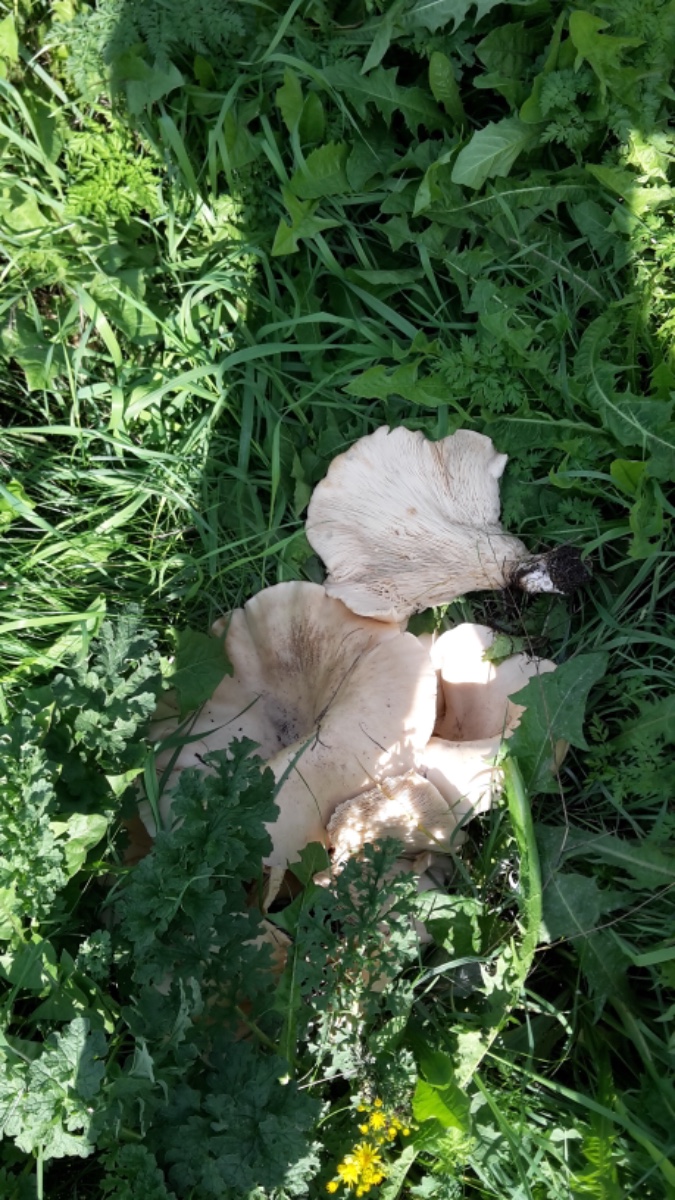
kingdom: Fungi
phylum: Basidiomycota
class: Agaricomycetes
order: Agaricales
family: Tricholomataceae
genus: Aspropaxillus
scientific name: Aspropaxillus giganteus
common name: kæmpe-tragtridderhat
